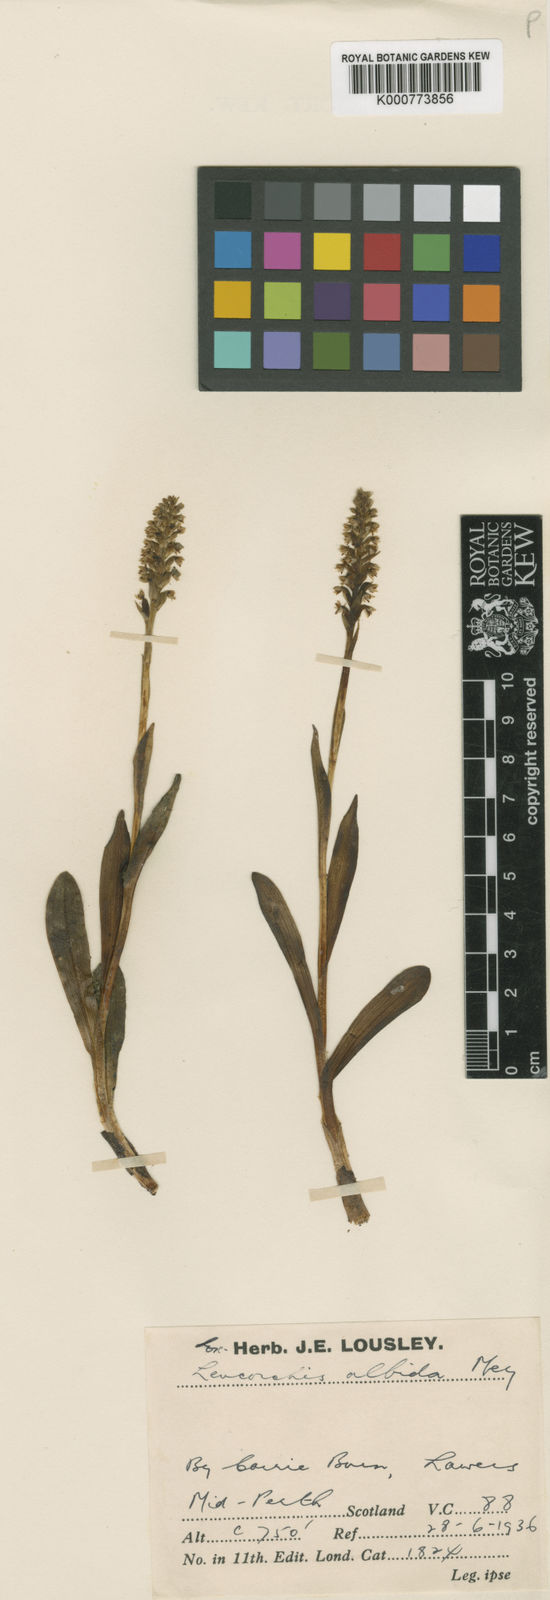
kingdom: Plantae
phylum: Tracheophyta
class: Liliopsida
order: Asparagales
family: Orchidaceae
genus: Pseudorchis
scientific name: Pseudorchis
